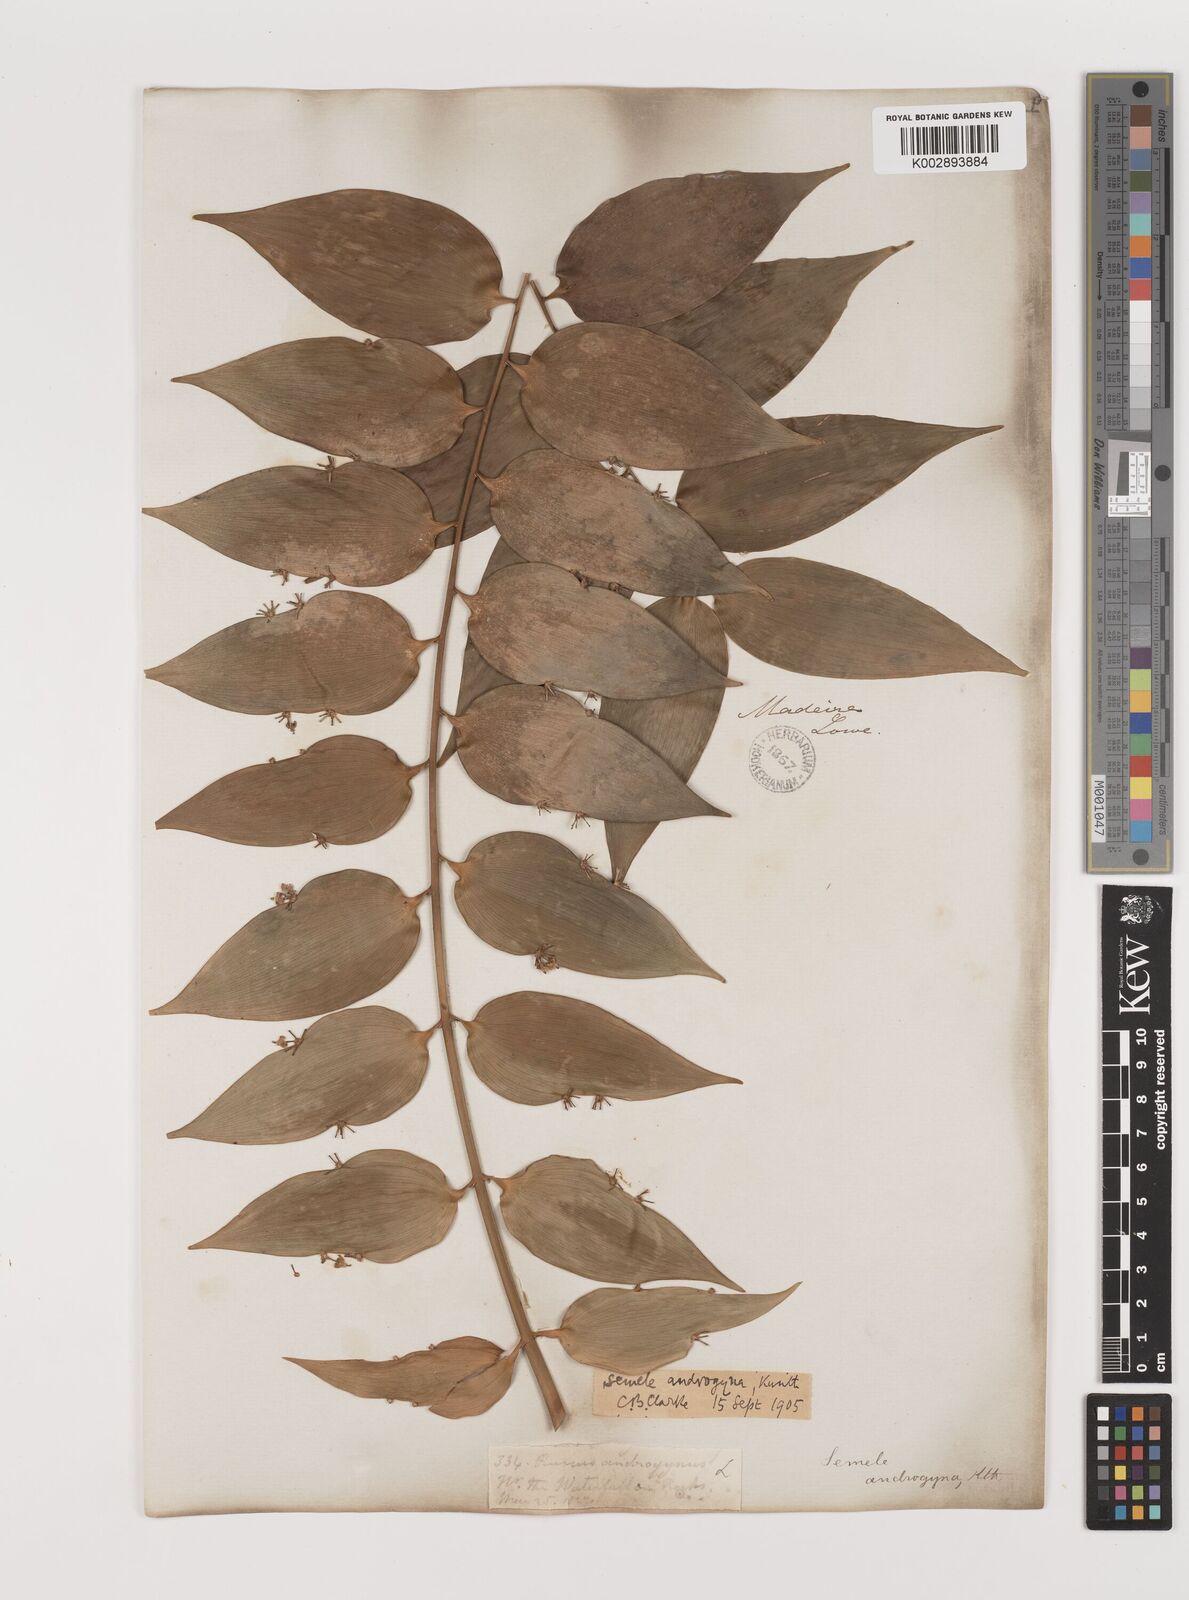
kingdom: Plantae
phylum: Tracheophyta
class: Liliopsida
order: Asparagales
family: Asparagaceae
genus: Semele
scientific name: Semele androgyna
